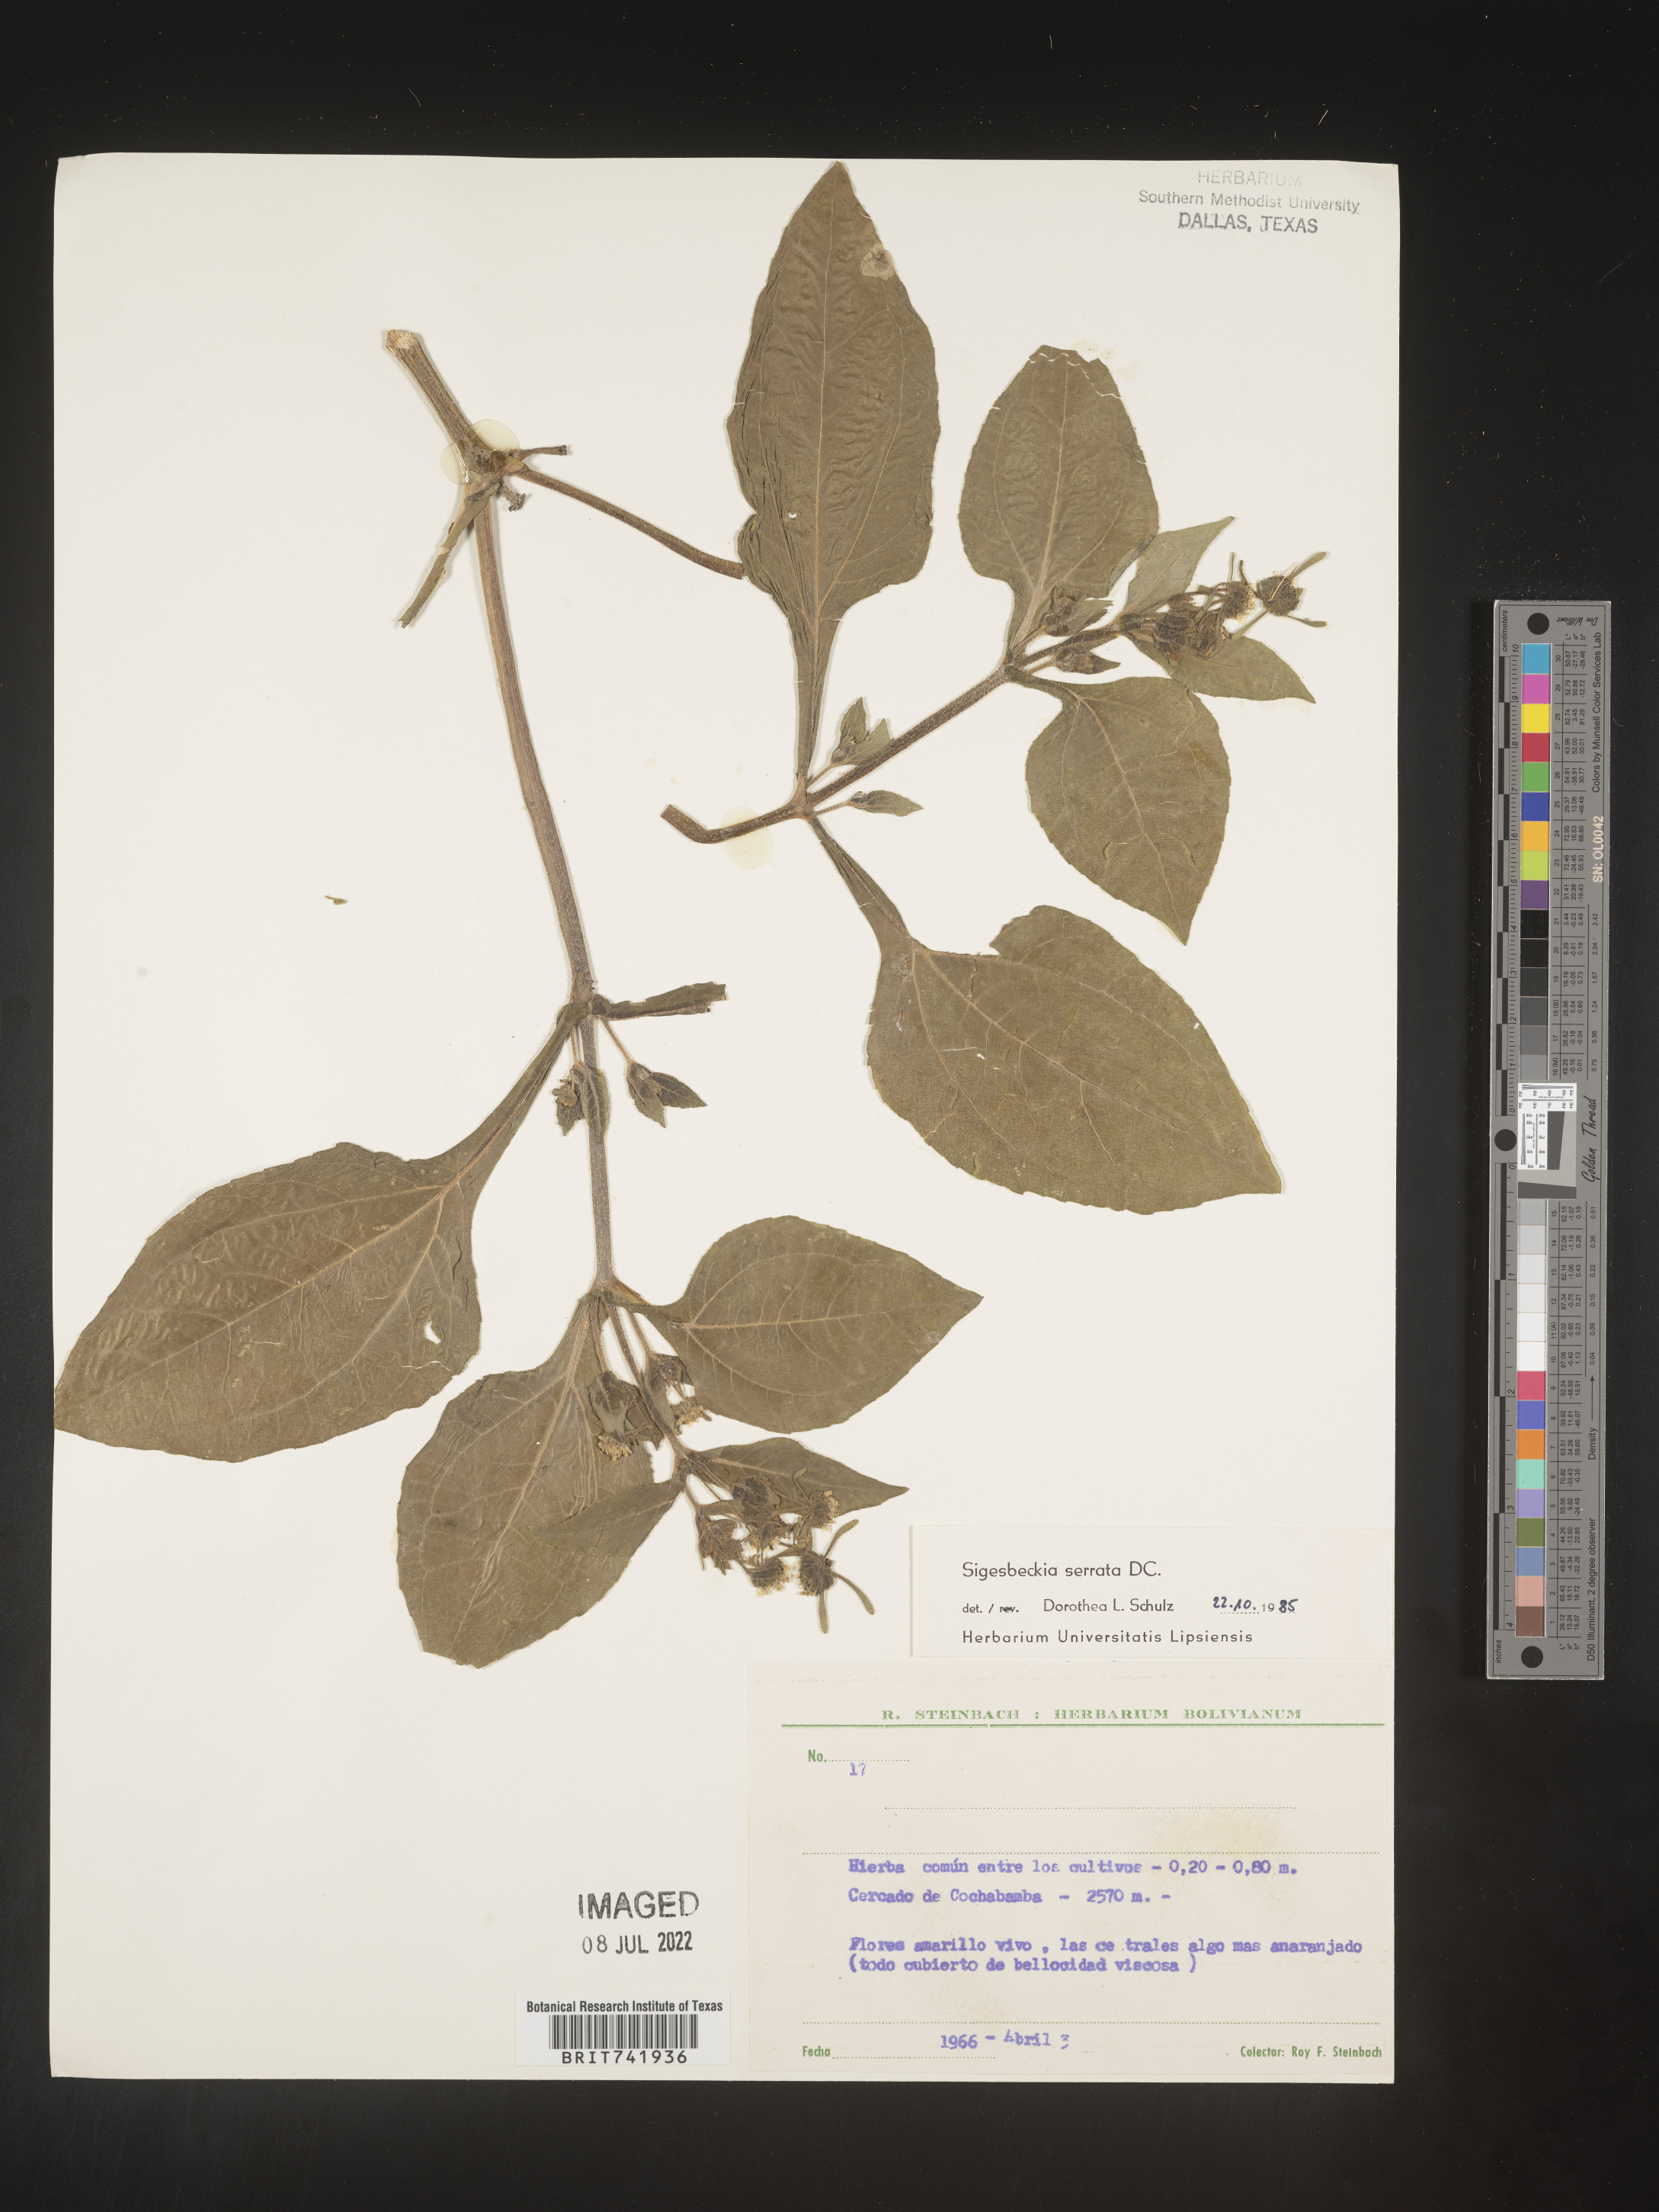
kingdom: Plantae
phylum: Tracheophyta
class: Magnoliopsida
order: Asterales
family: Asteraceae
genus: Sigesbeckia
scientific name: Sigesbeckia
